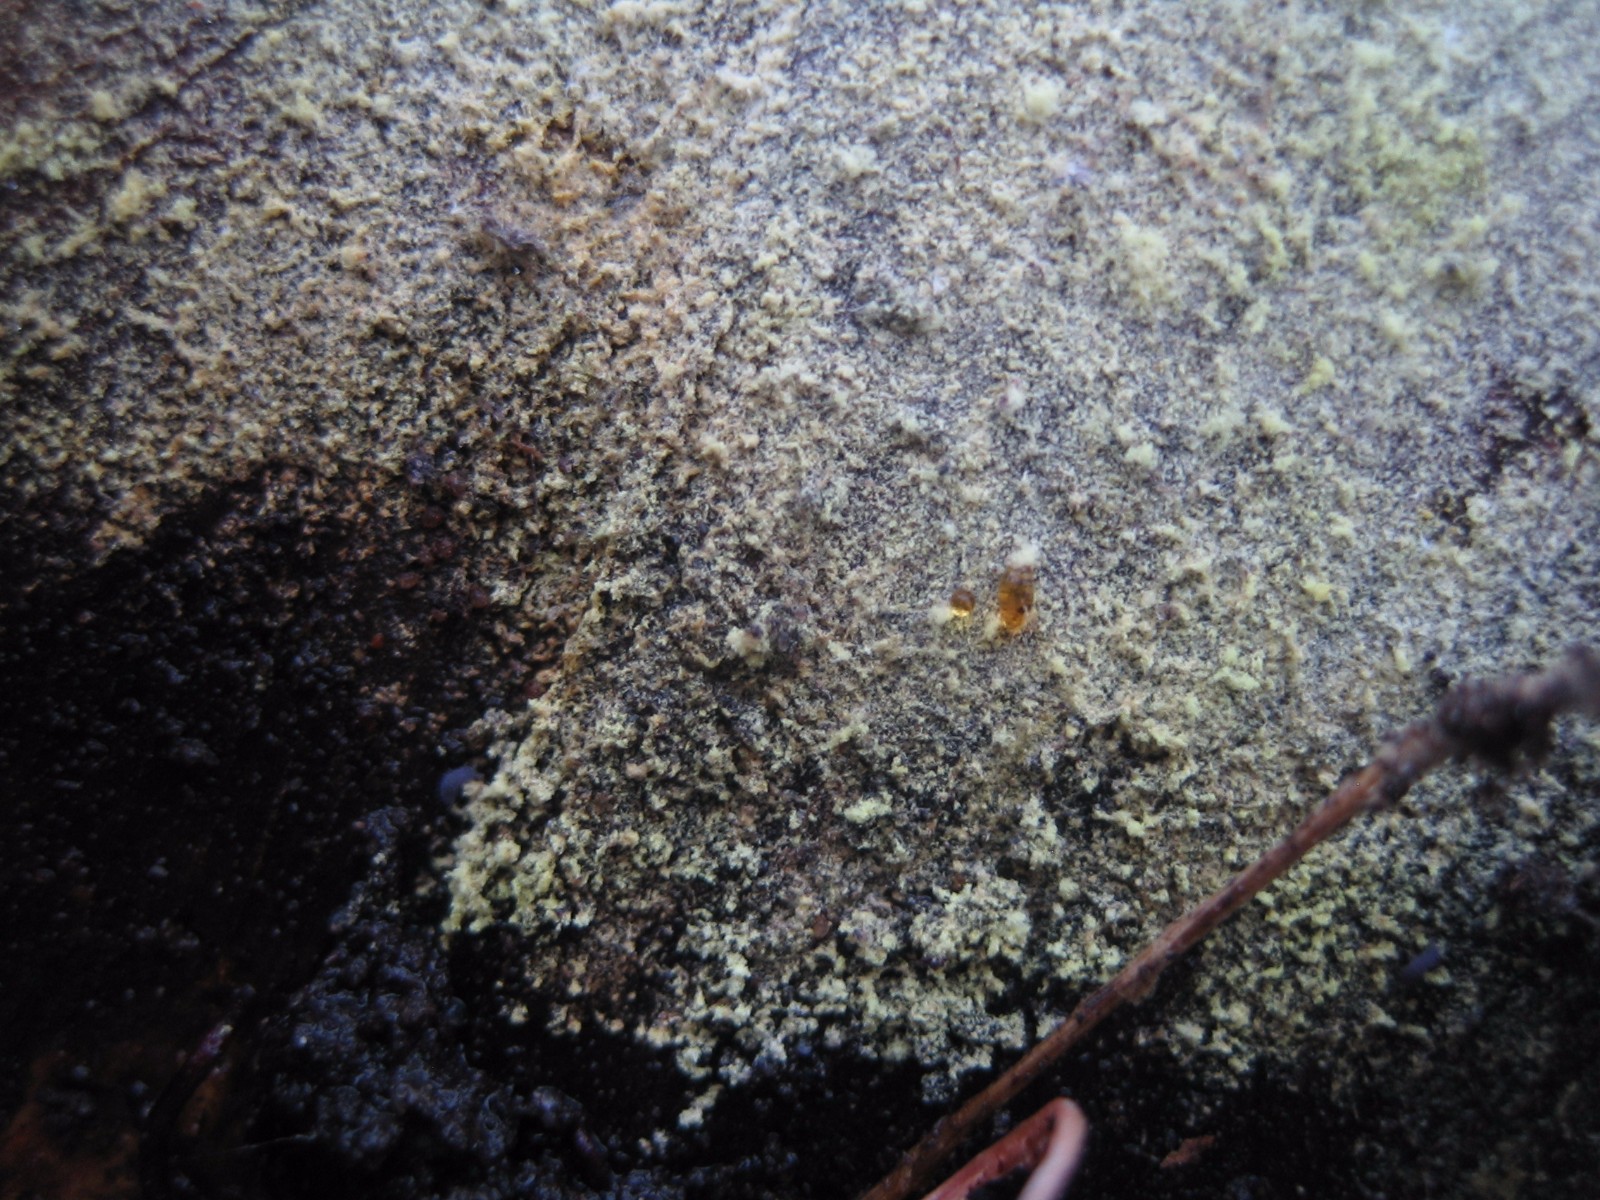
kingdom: Fungi
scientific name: Fungi
